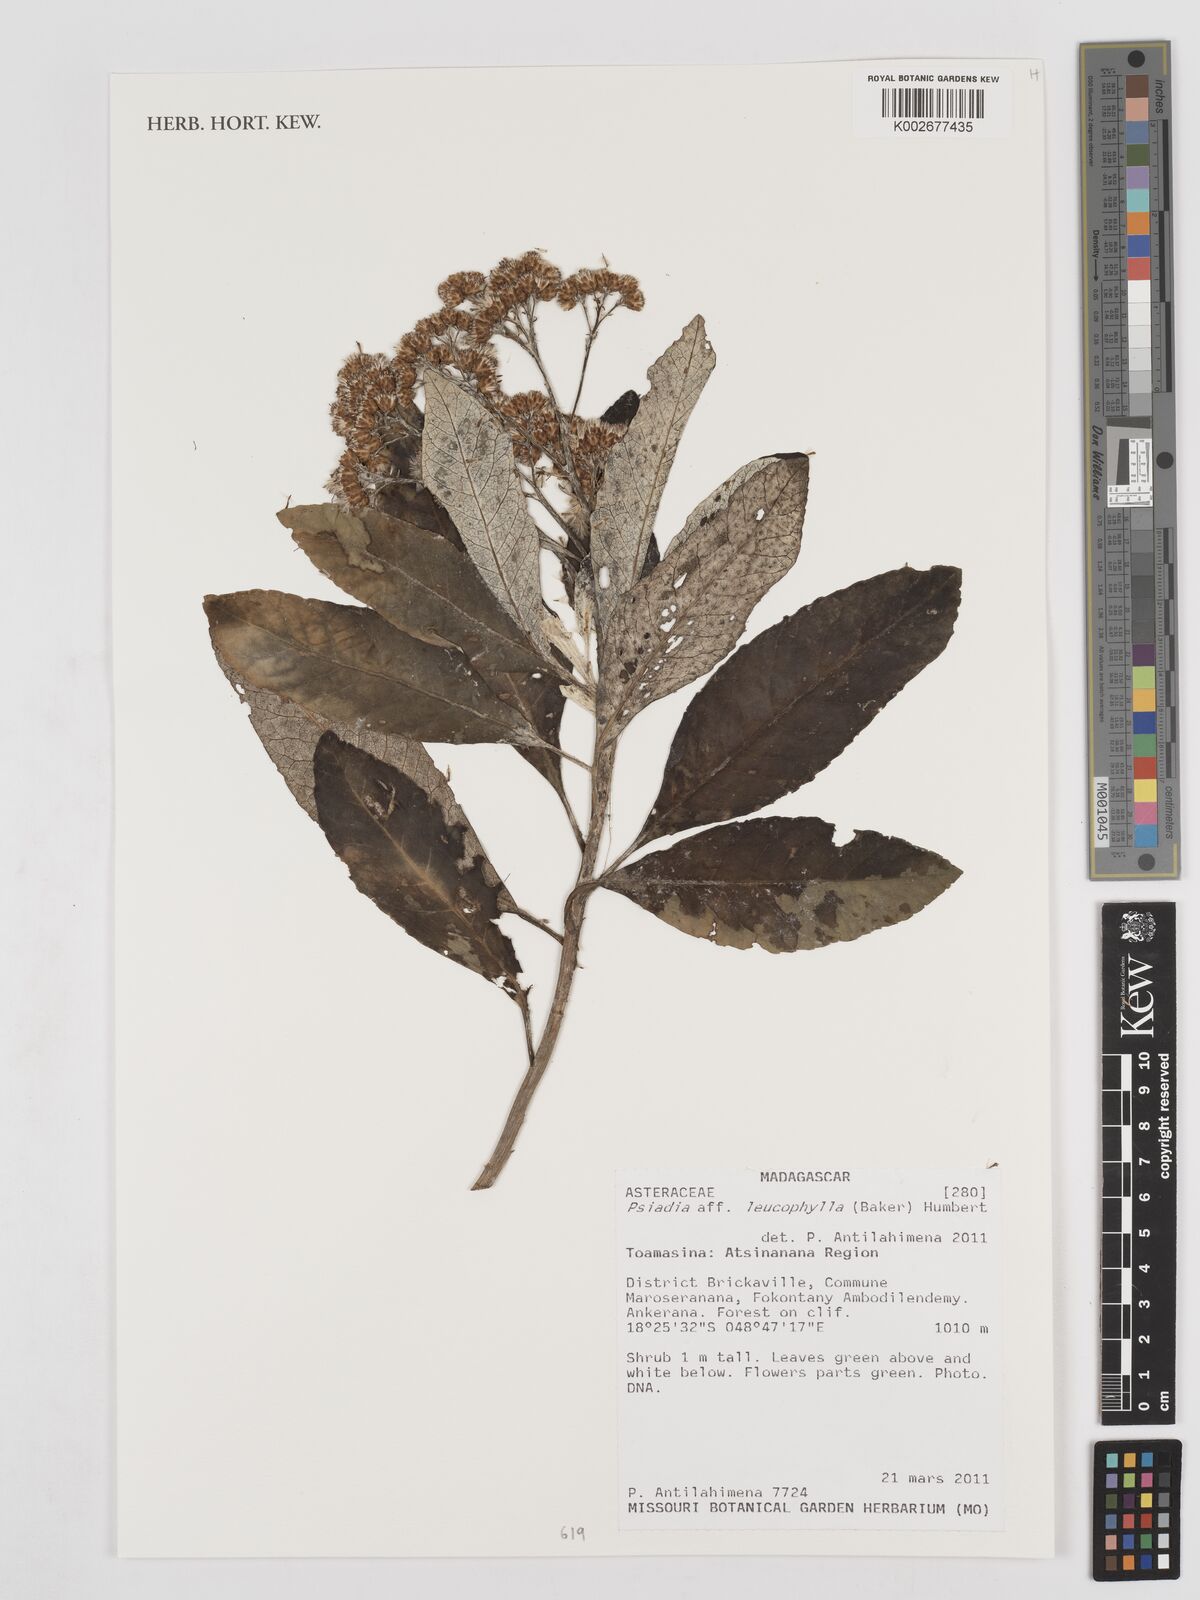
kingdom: Plantae
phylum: Tracheophyta
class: Magnoliopsida
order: Asterales
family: Asteraceae
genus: Psiadia
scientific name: Psiadia leucophylla
